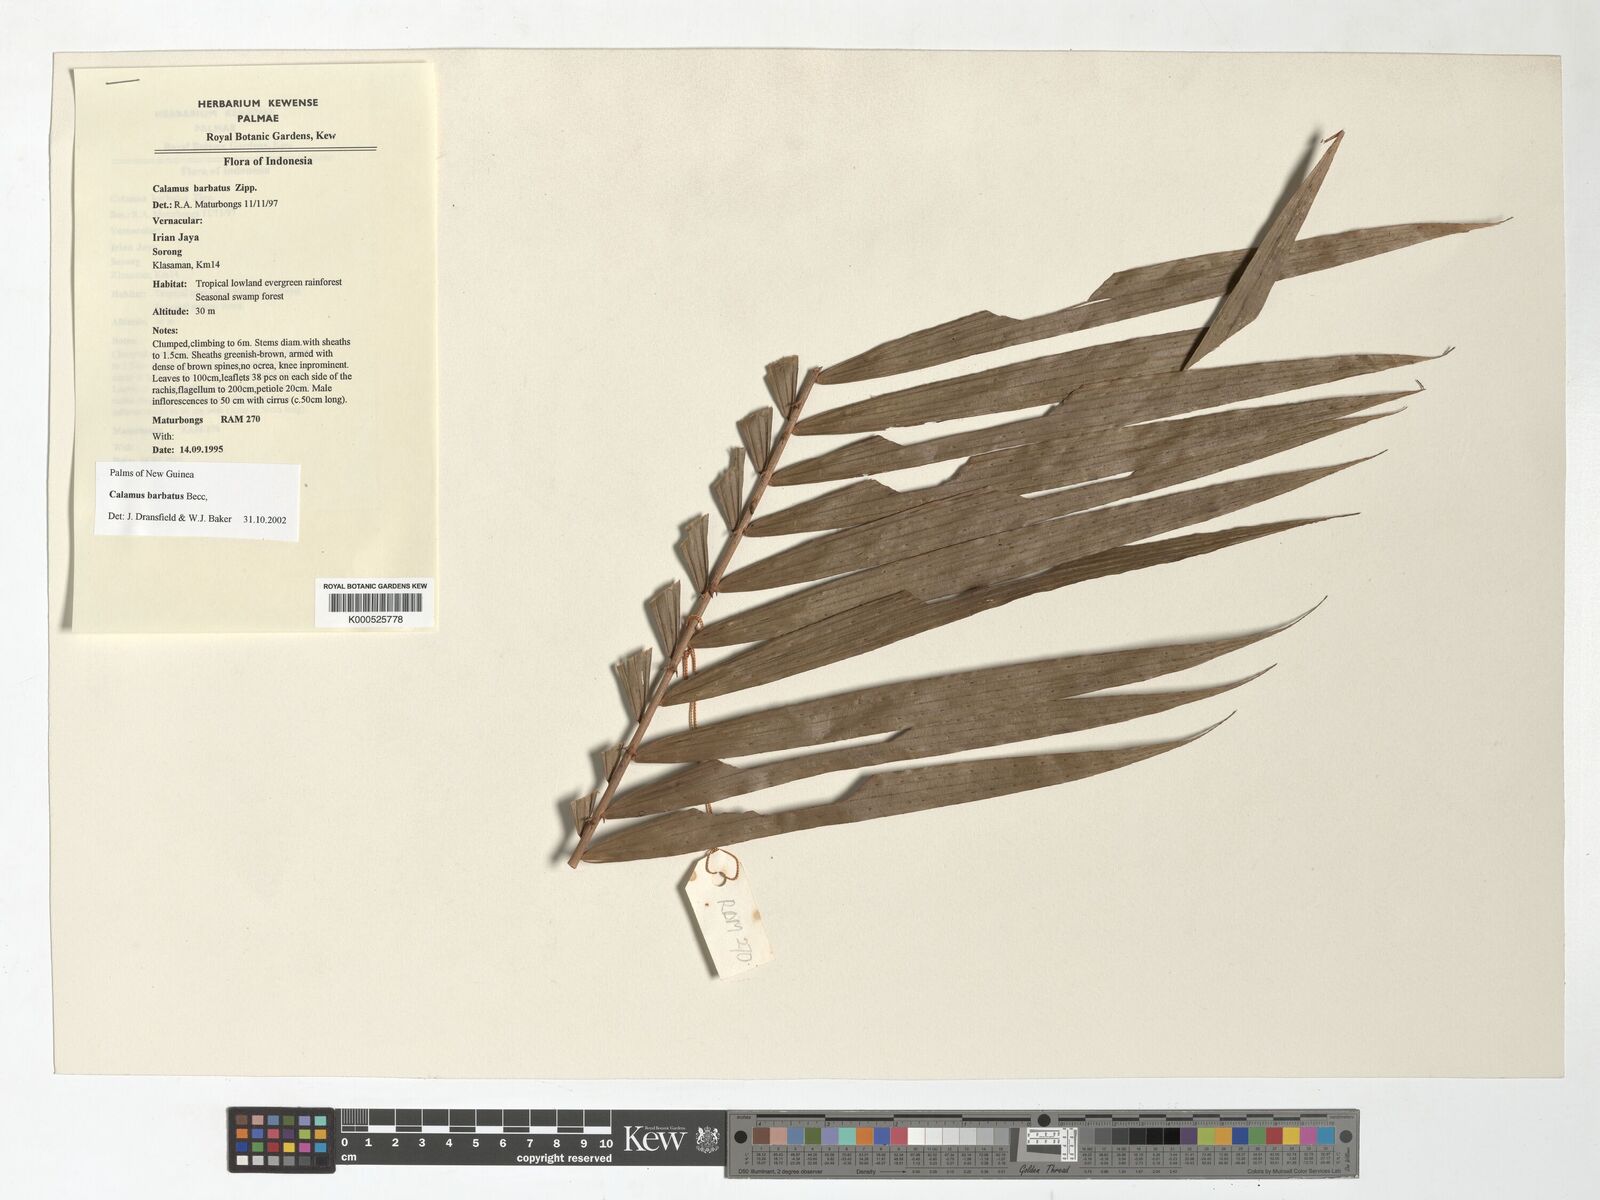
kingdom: Plantae
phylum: Tracheophyta
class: Liliopsida
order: Arecales
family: Arecaceae
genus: Calamus
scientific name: Calamus
